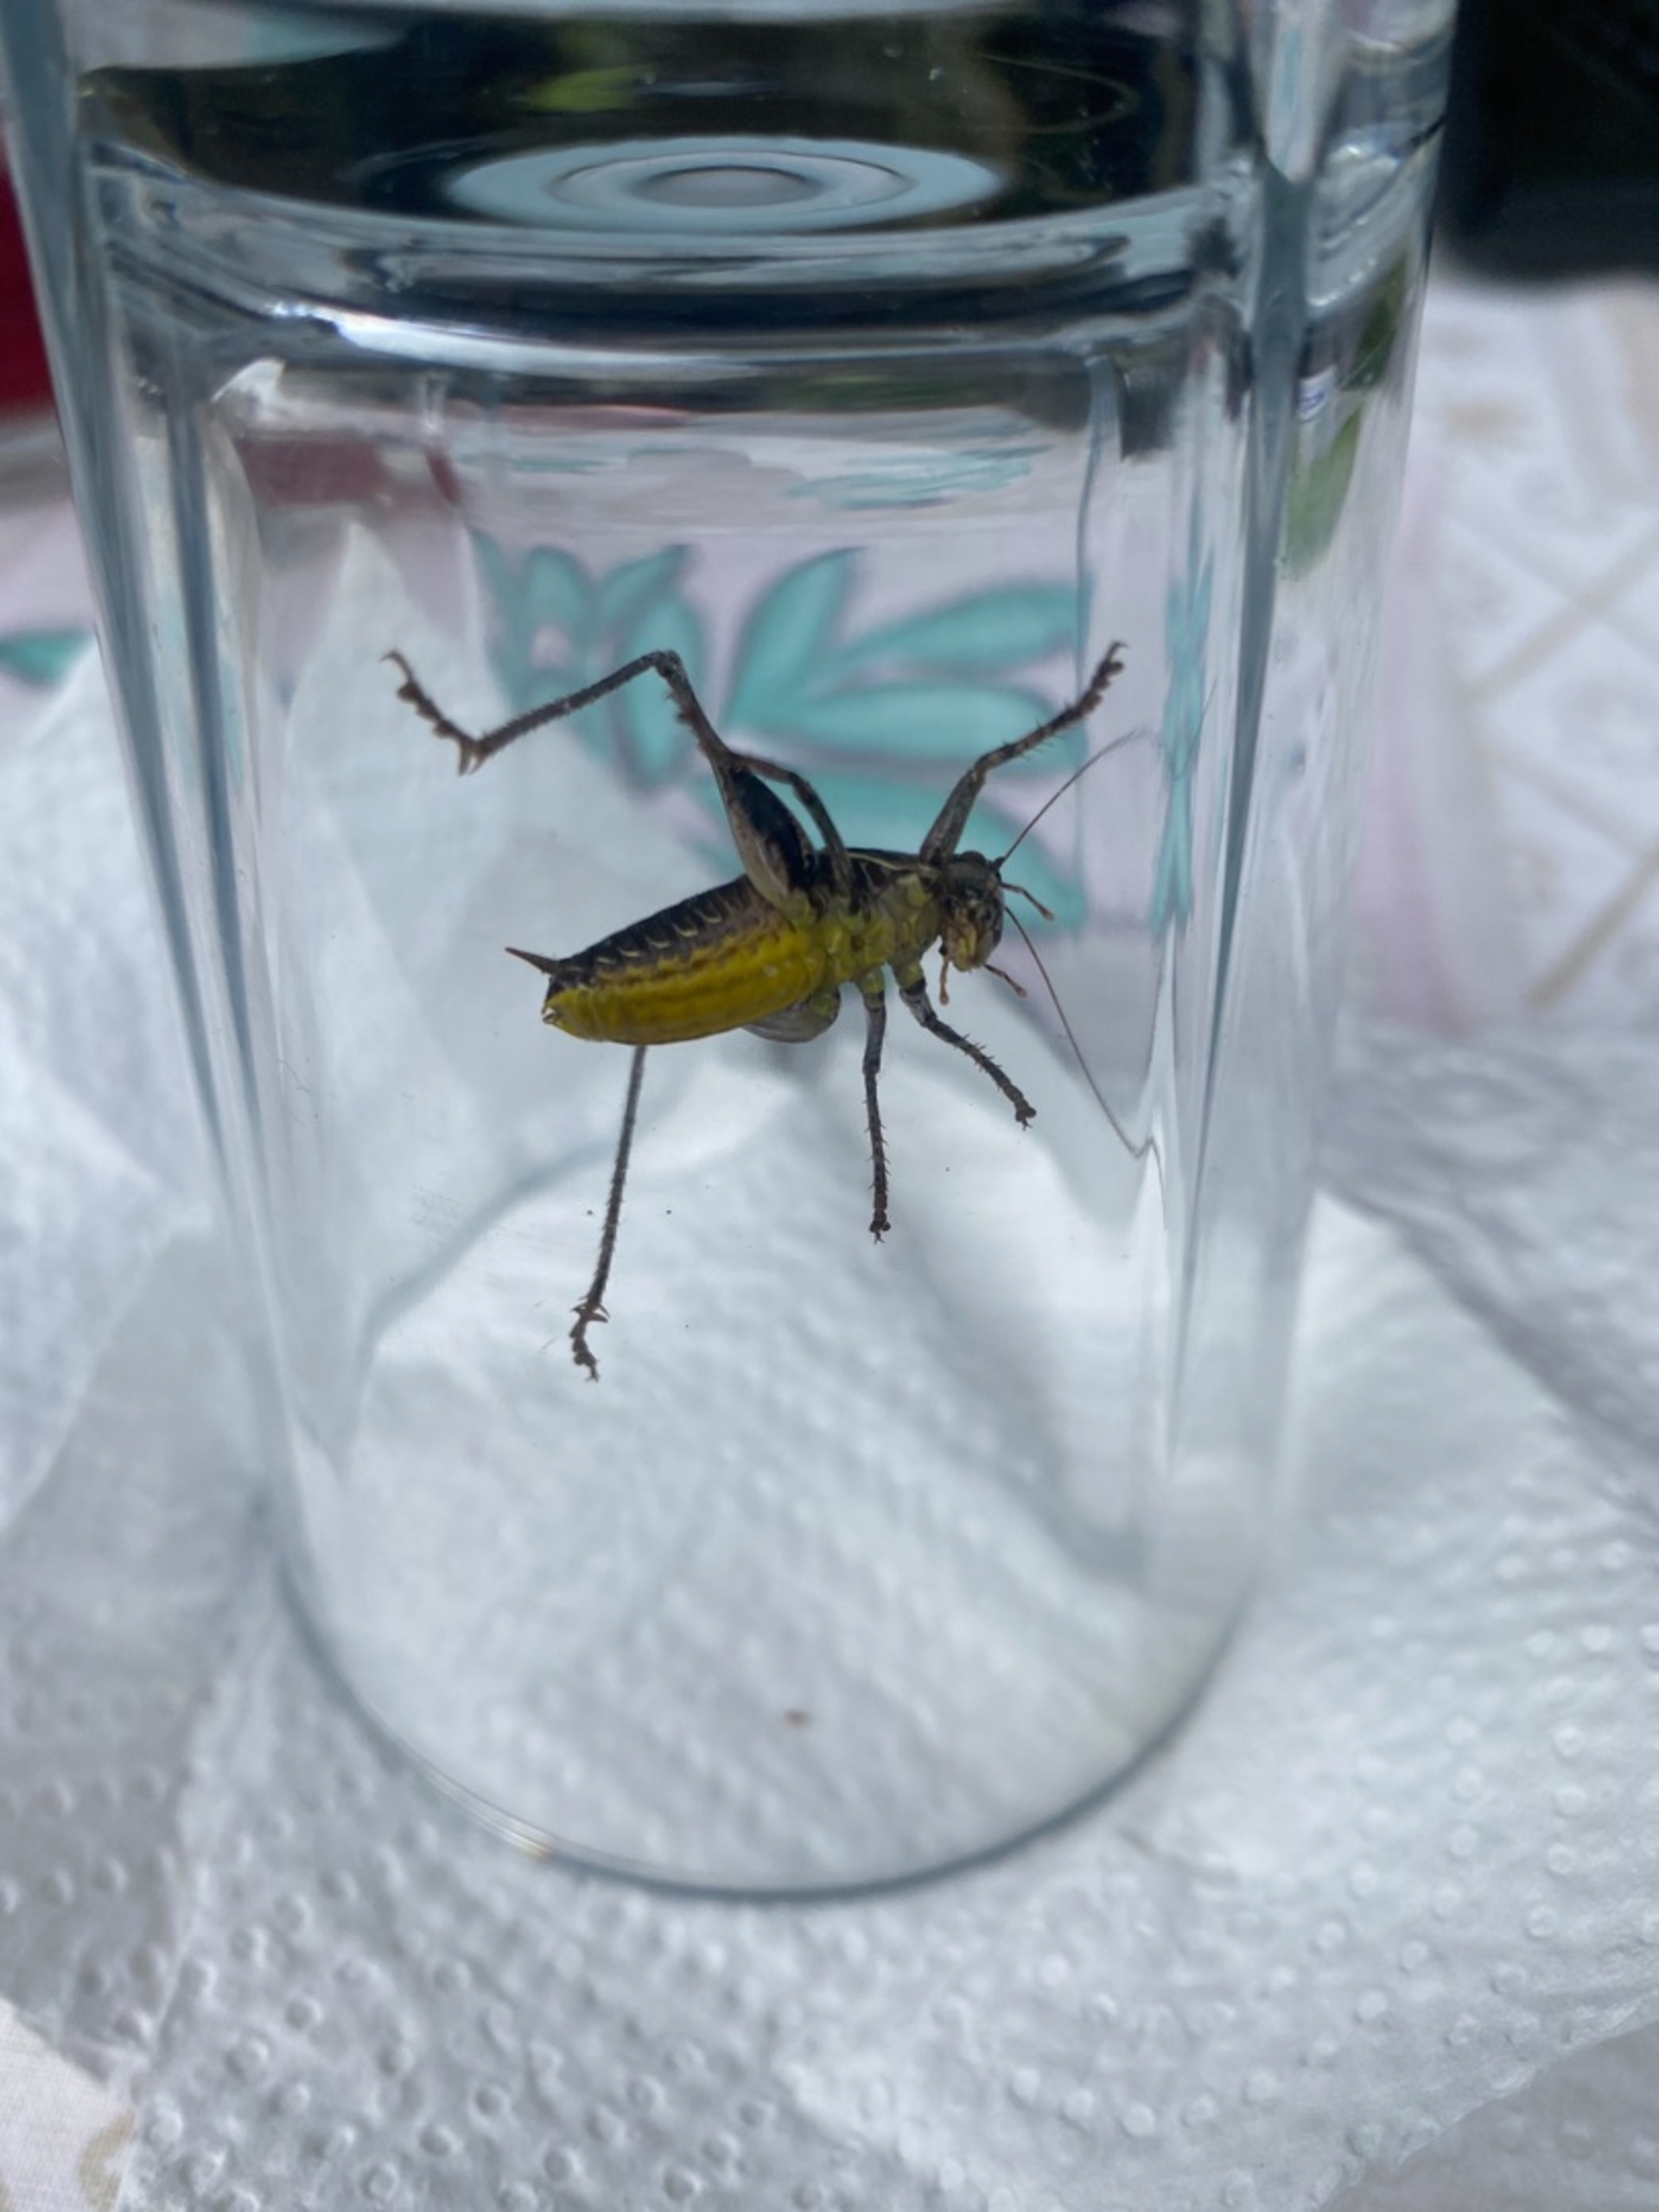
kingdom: Animalia
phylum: Arthropoda
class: Insecta
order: Orthoptera
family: Tettigoniidae
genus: Pholidoptera
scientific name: Pholidoptera griseoaptera
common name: Buskgræshoppe
